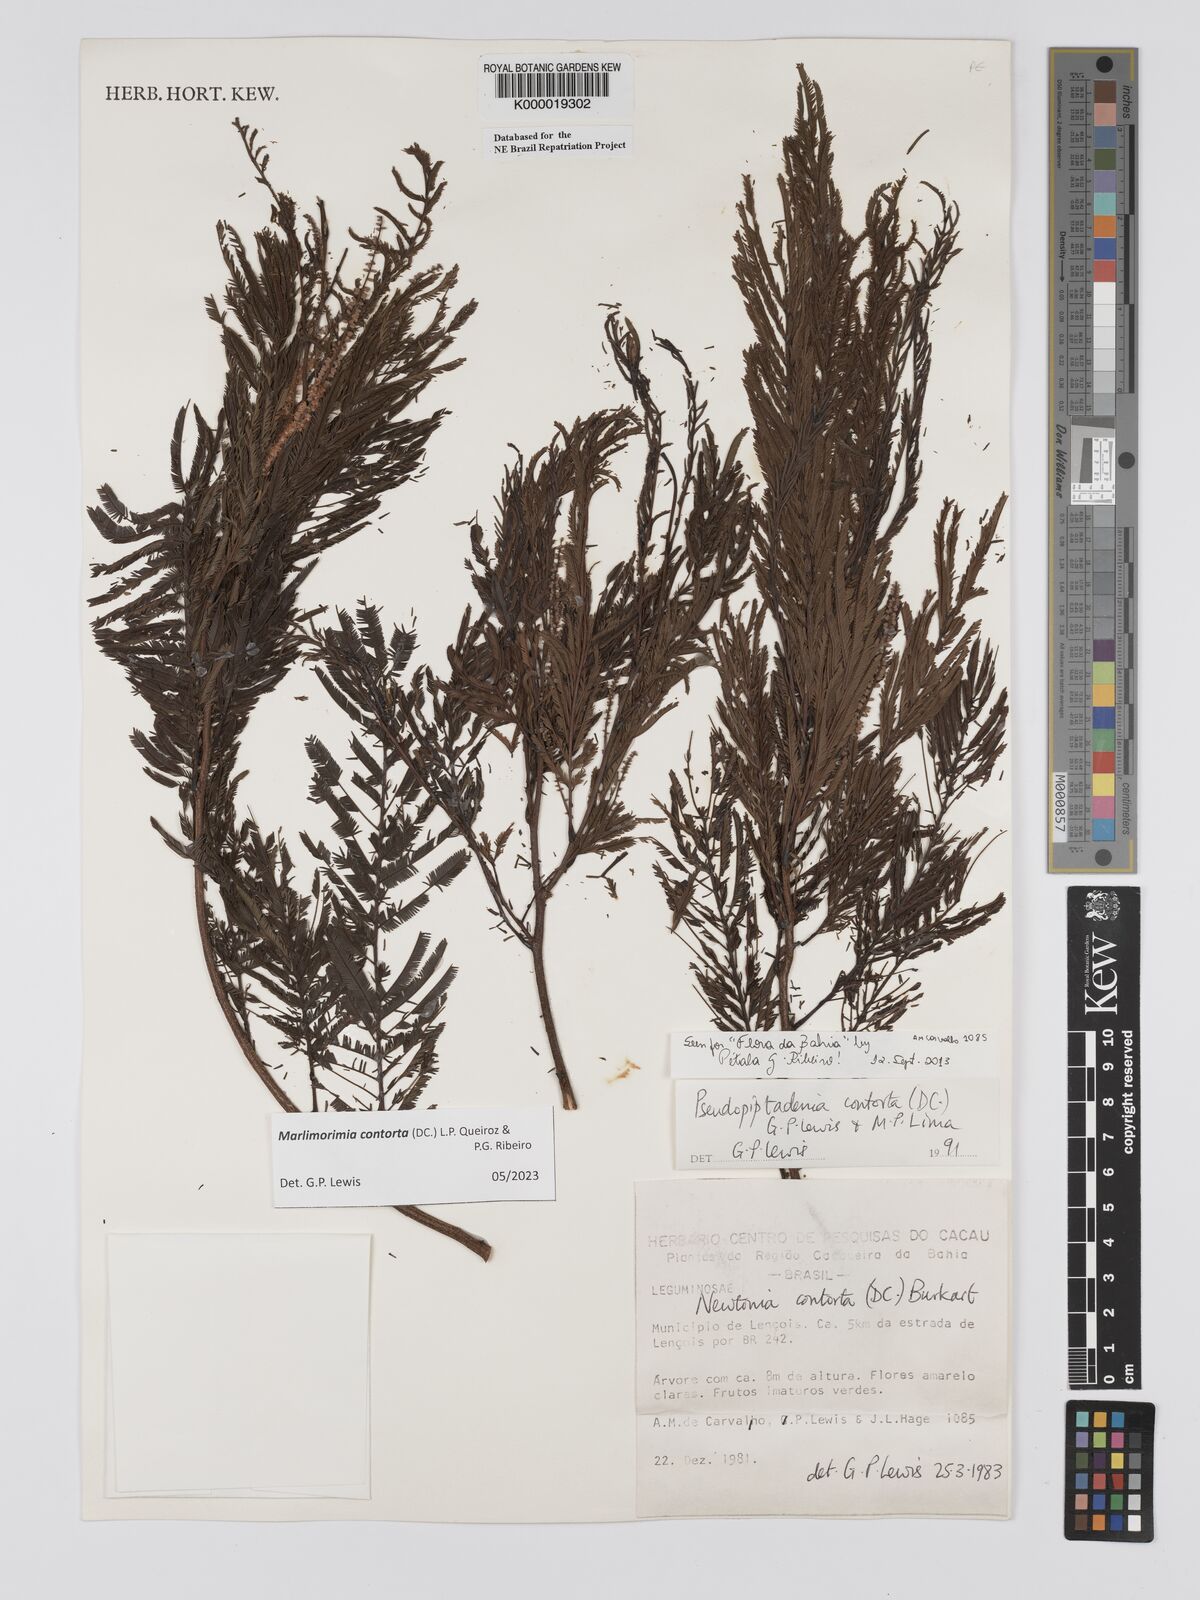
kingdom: Plantae
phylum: Tracheophyta
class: Magnoliopsida
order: Fabales
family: Fabaceae
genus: Pseudopiptadenia
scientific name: Pseudopiptadenia contorta
